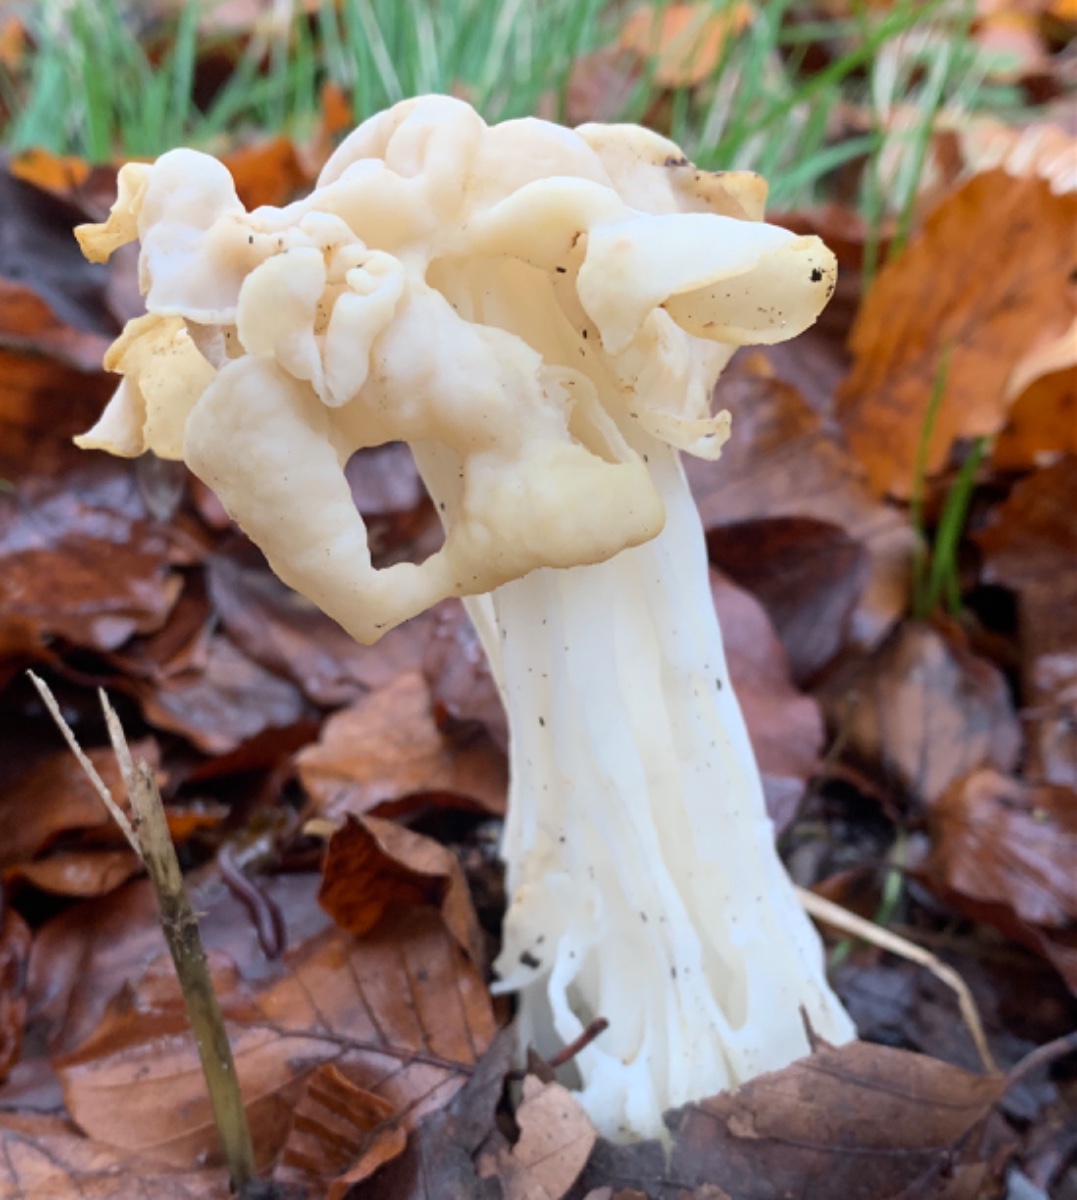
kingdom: Fungi
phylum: Ascomycota
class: Pezizomycetes
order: Pezizales
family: Helvellaceae
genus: Helvella
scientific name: Helvella crispa
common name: kruset foldhat
